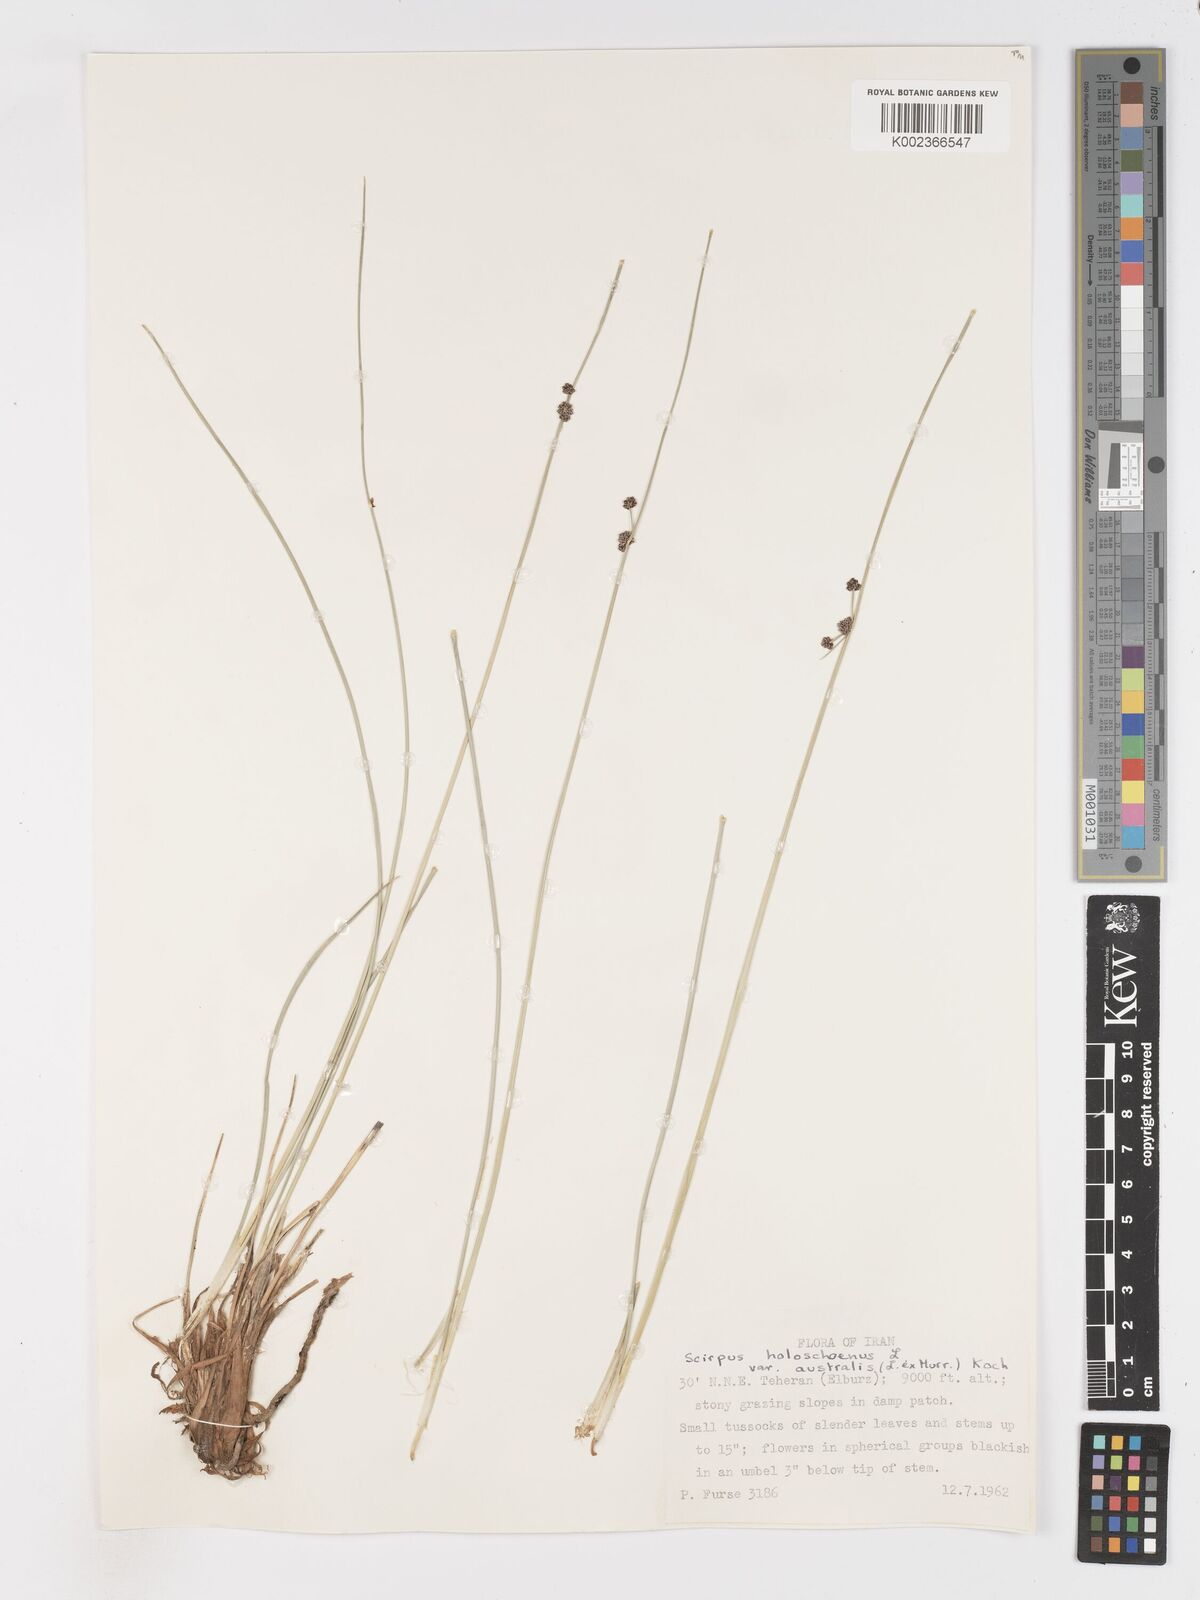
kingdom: Plantae
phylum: Tracheophyta
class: Liliopsida
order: Poales
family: Cyperaceae
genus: Scirpoides
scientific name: Scirpoides holoschoenus
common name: Round-headed club-rush
